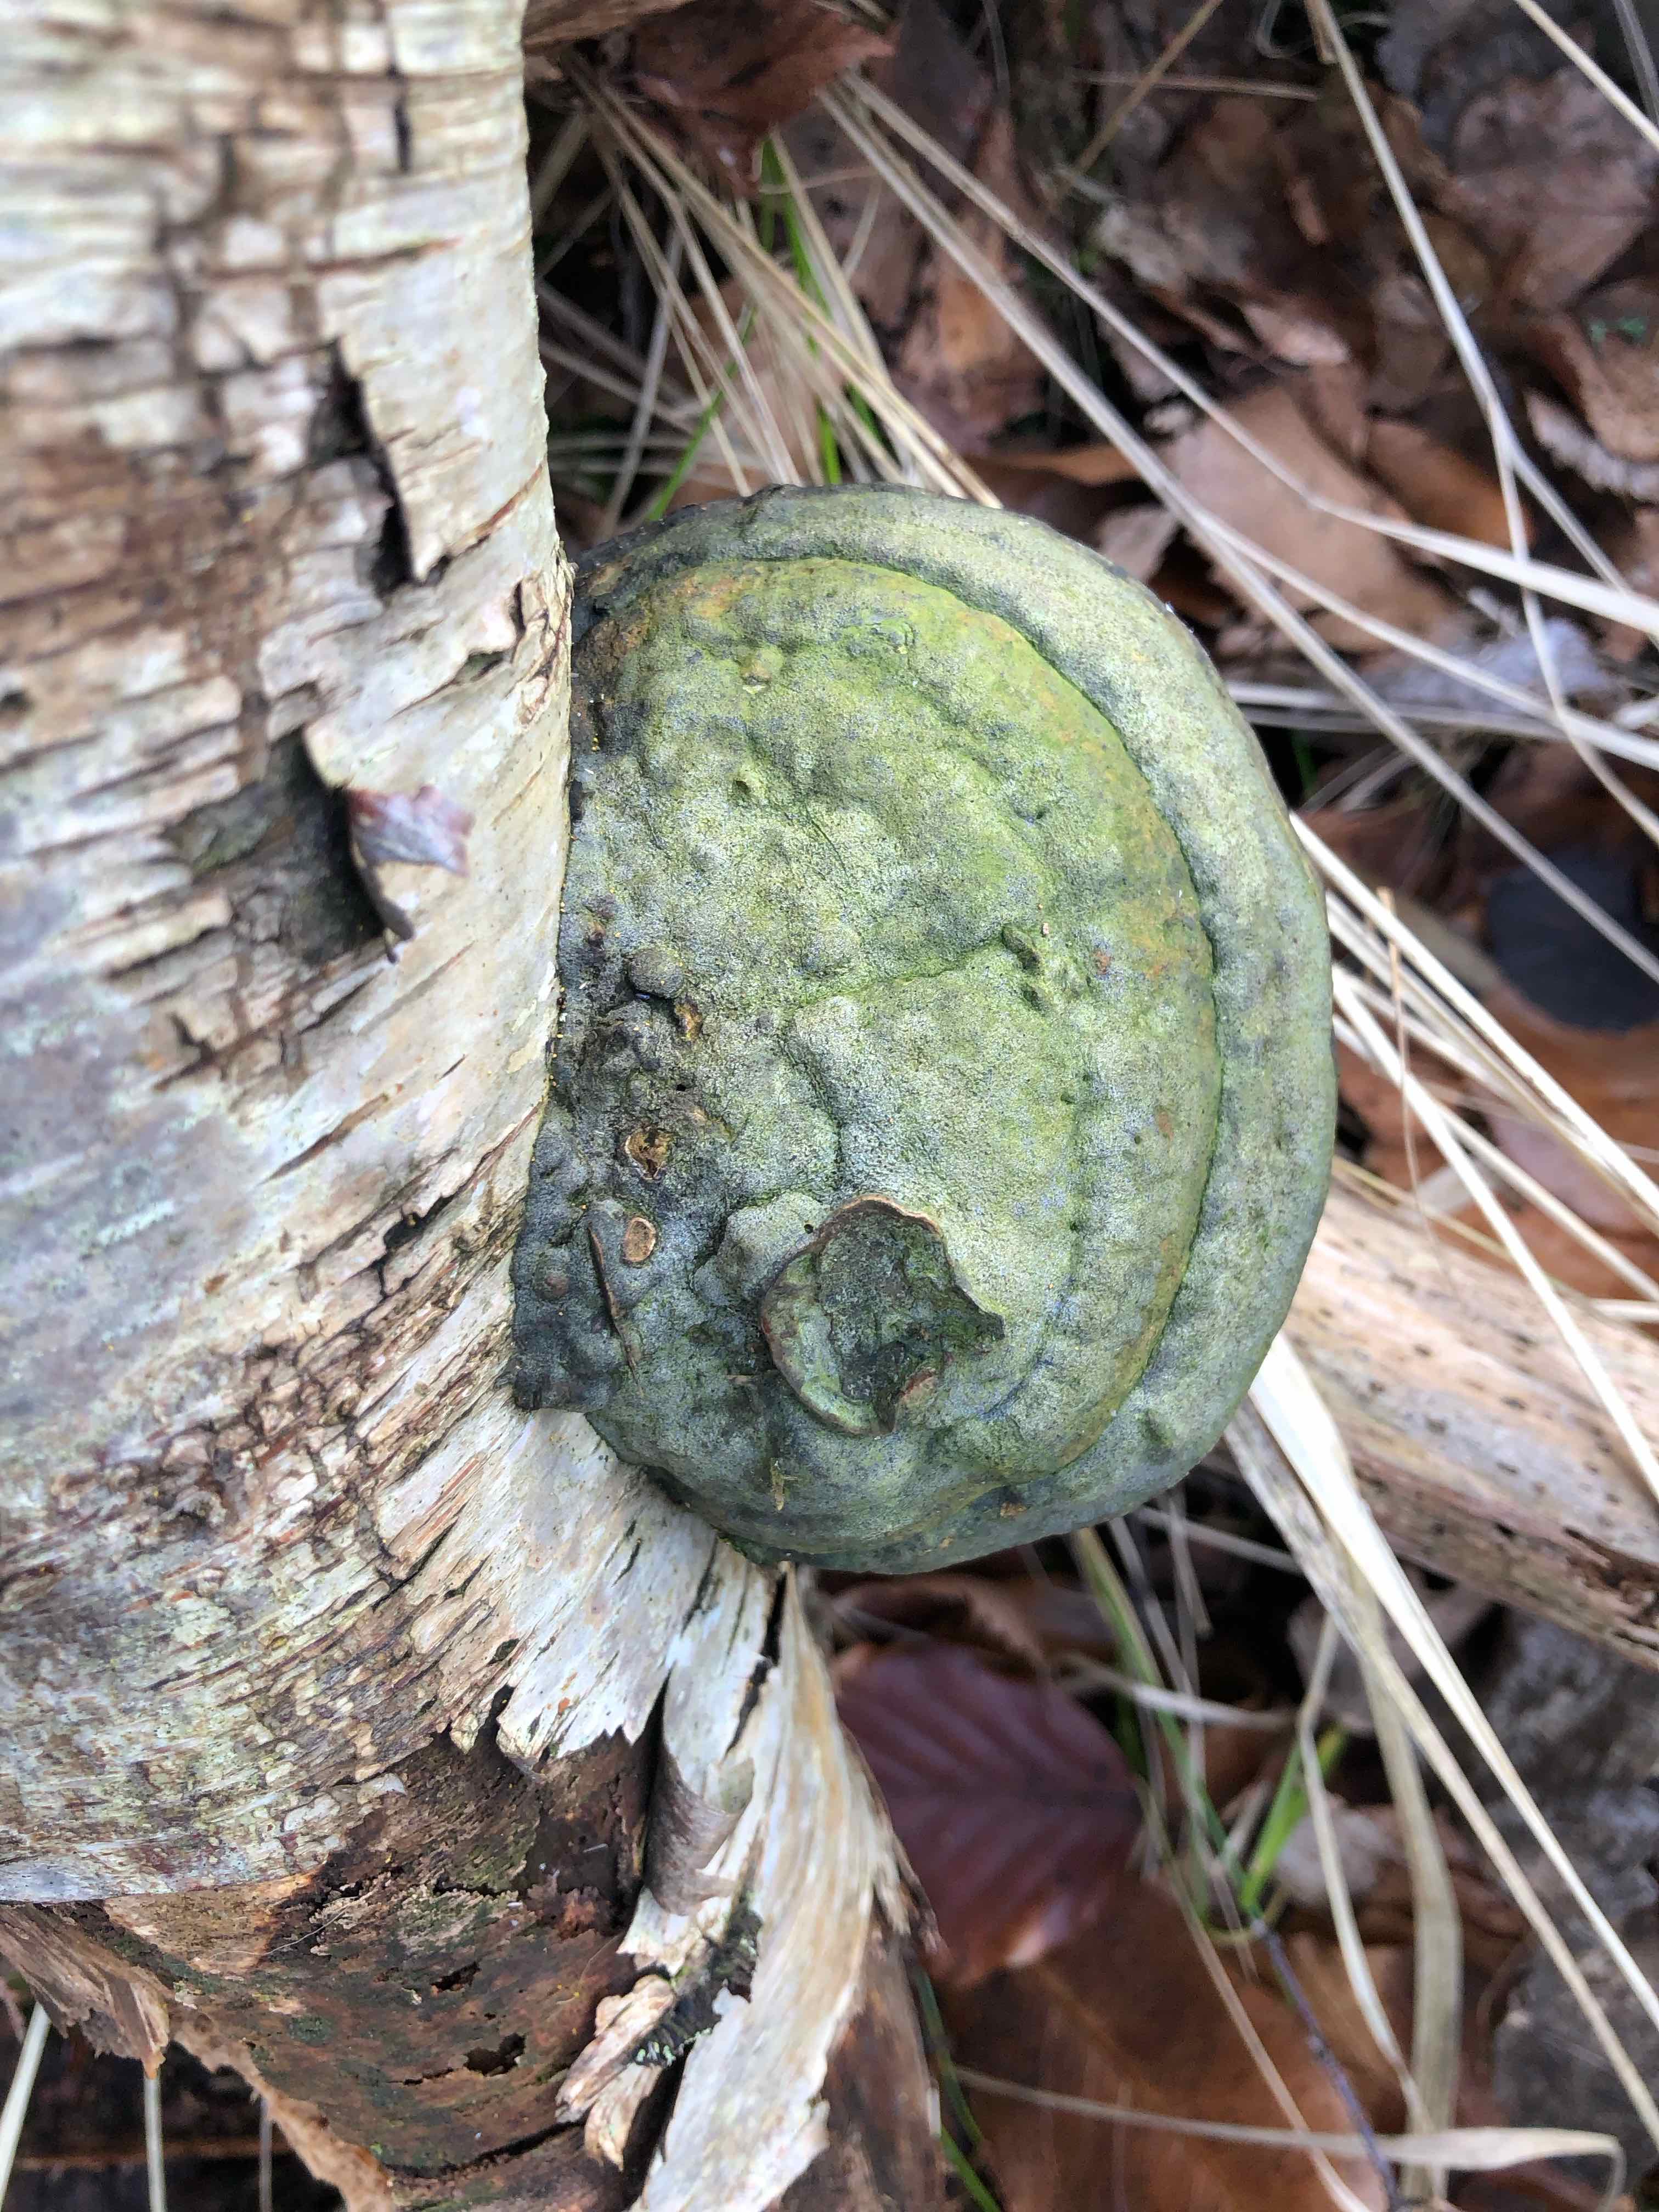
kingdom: Fungi
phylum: Basidiomycota
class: Agaricomycetes
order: Polyporales
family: Polyporaceae
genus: Fomes
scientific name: Fomes fomentarius
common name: tøndersvamp
